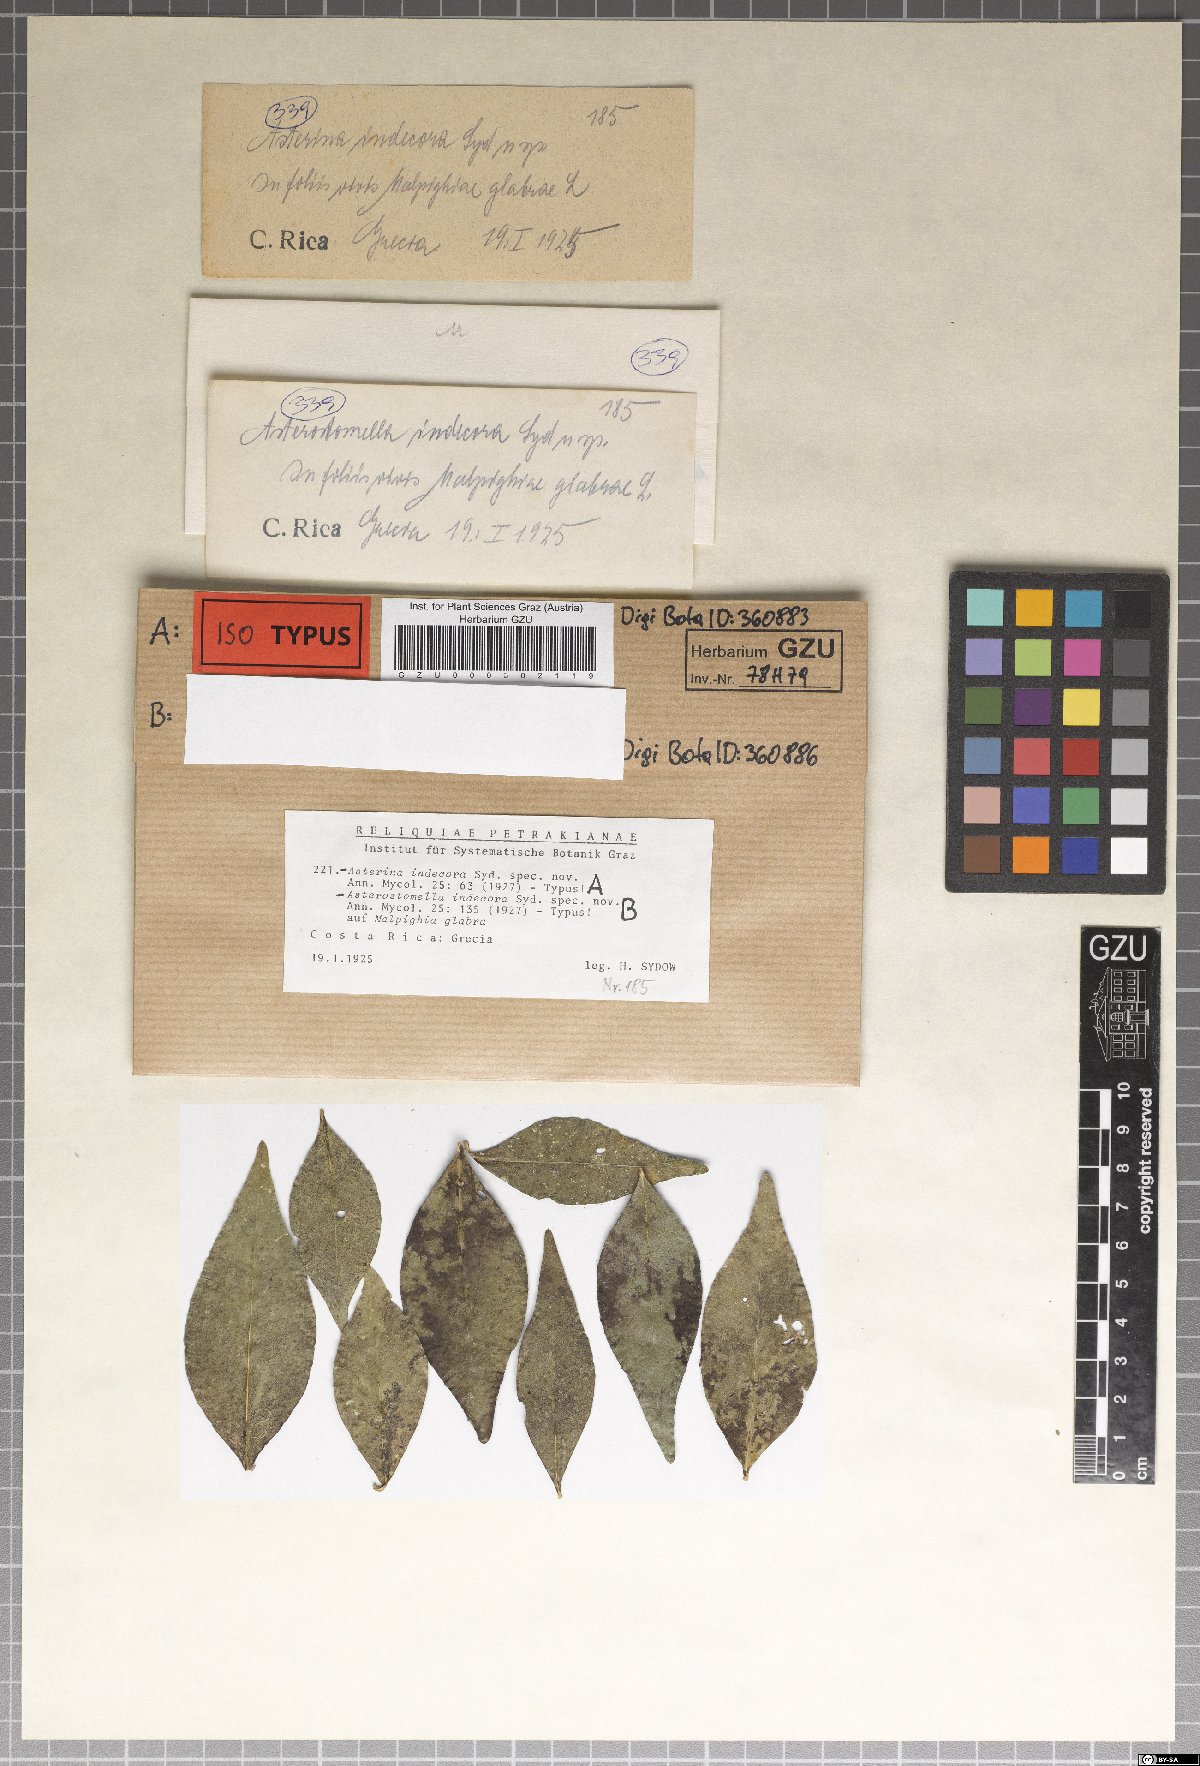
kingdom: Fungi
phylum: Ascomycota
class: Dothideomycetes
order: Asterinales
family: Asterinaceae
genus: Asterina
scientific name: Asterina indecora
